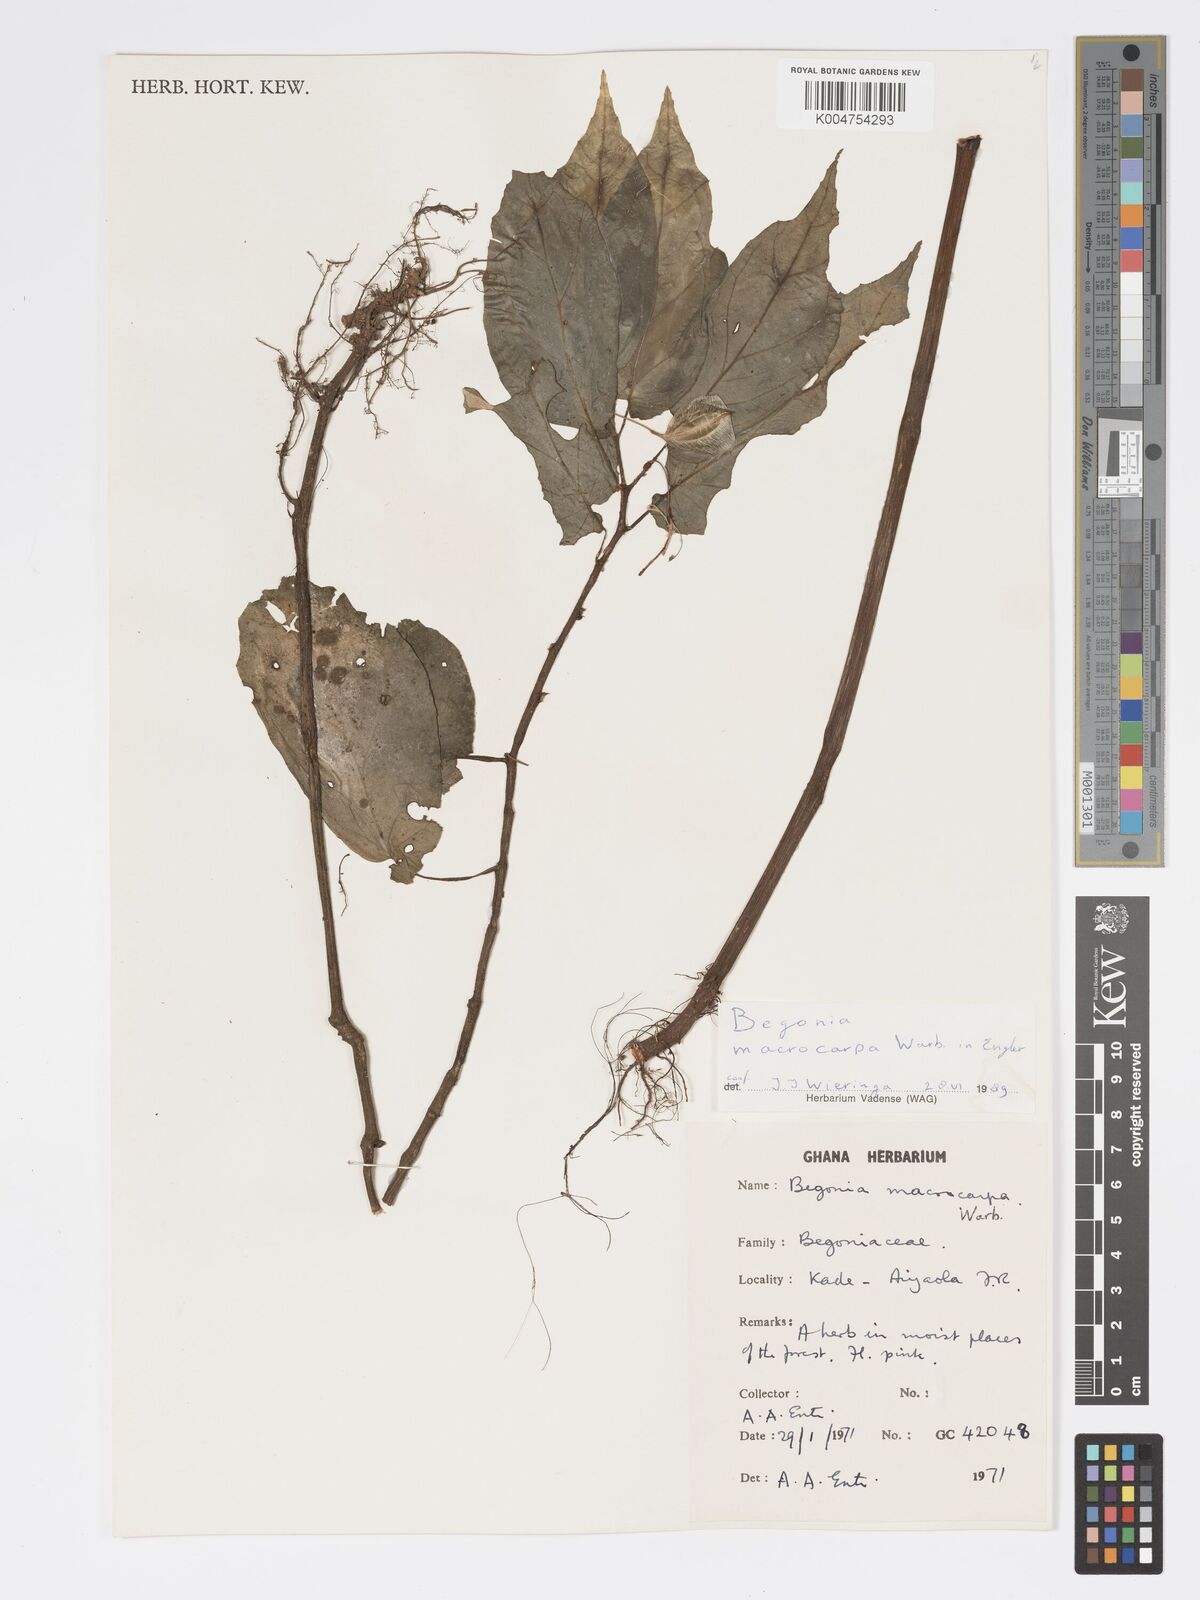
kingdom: Plantae
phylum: Tracheophyta
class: Magnoliopsida
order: Cucurbitales
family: Begoniaceae
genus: Begonia
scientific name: Begonia macrocarpa
